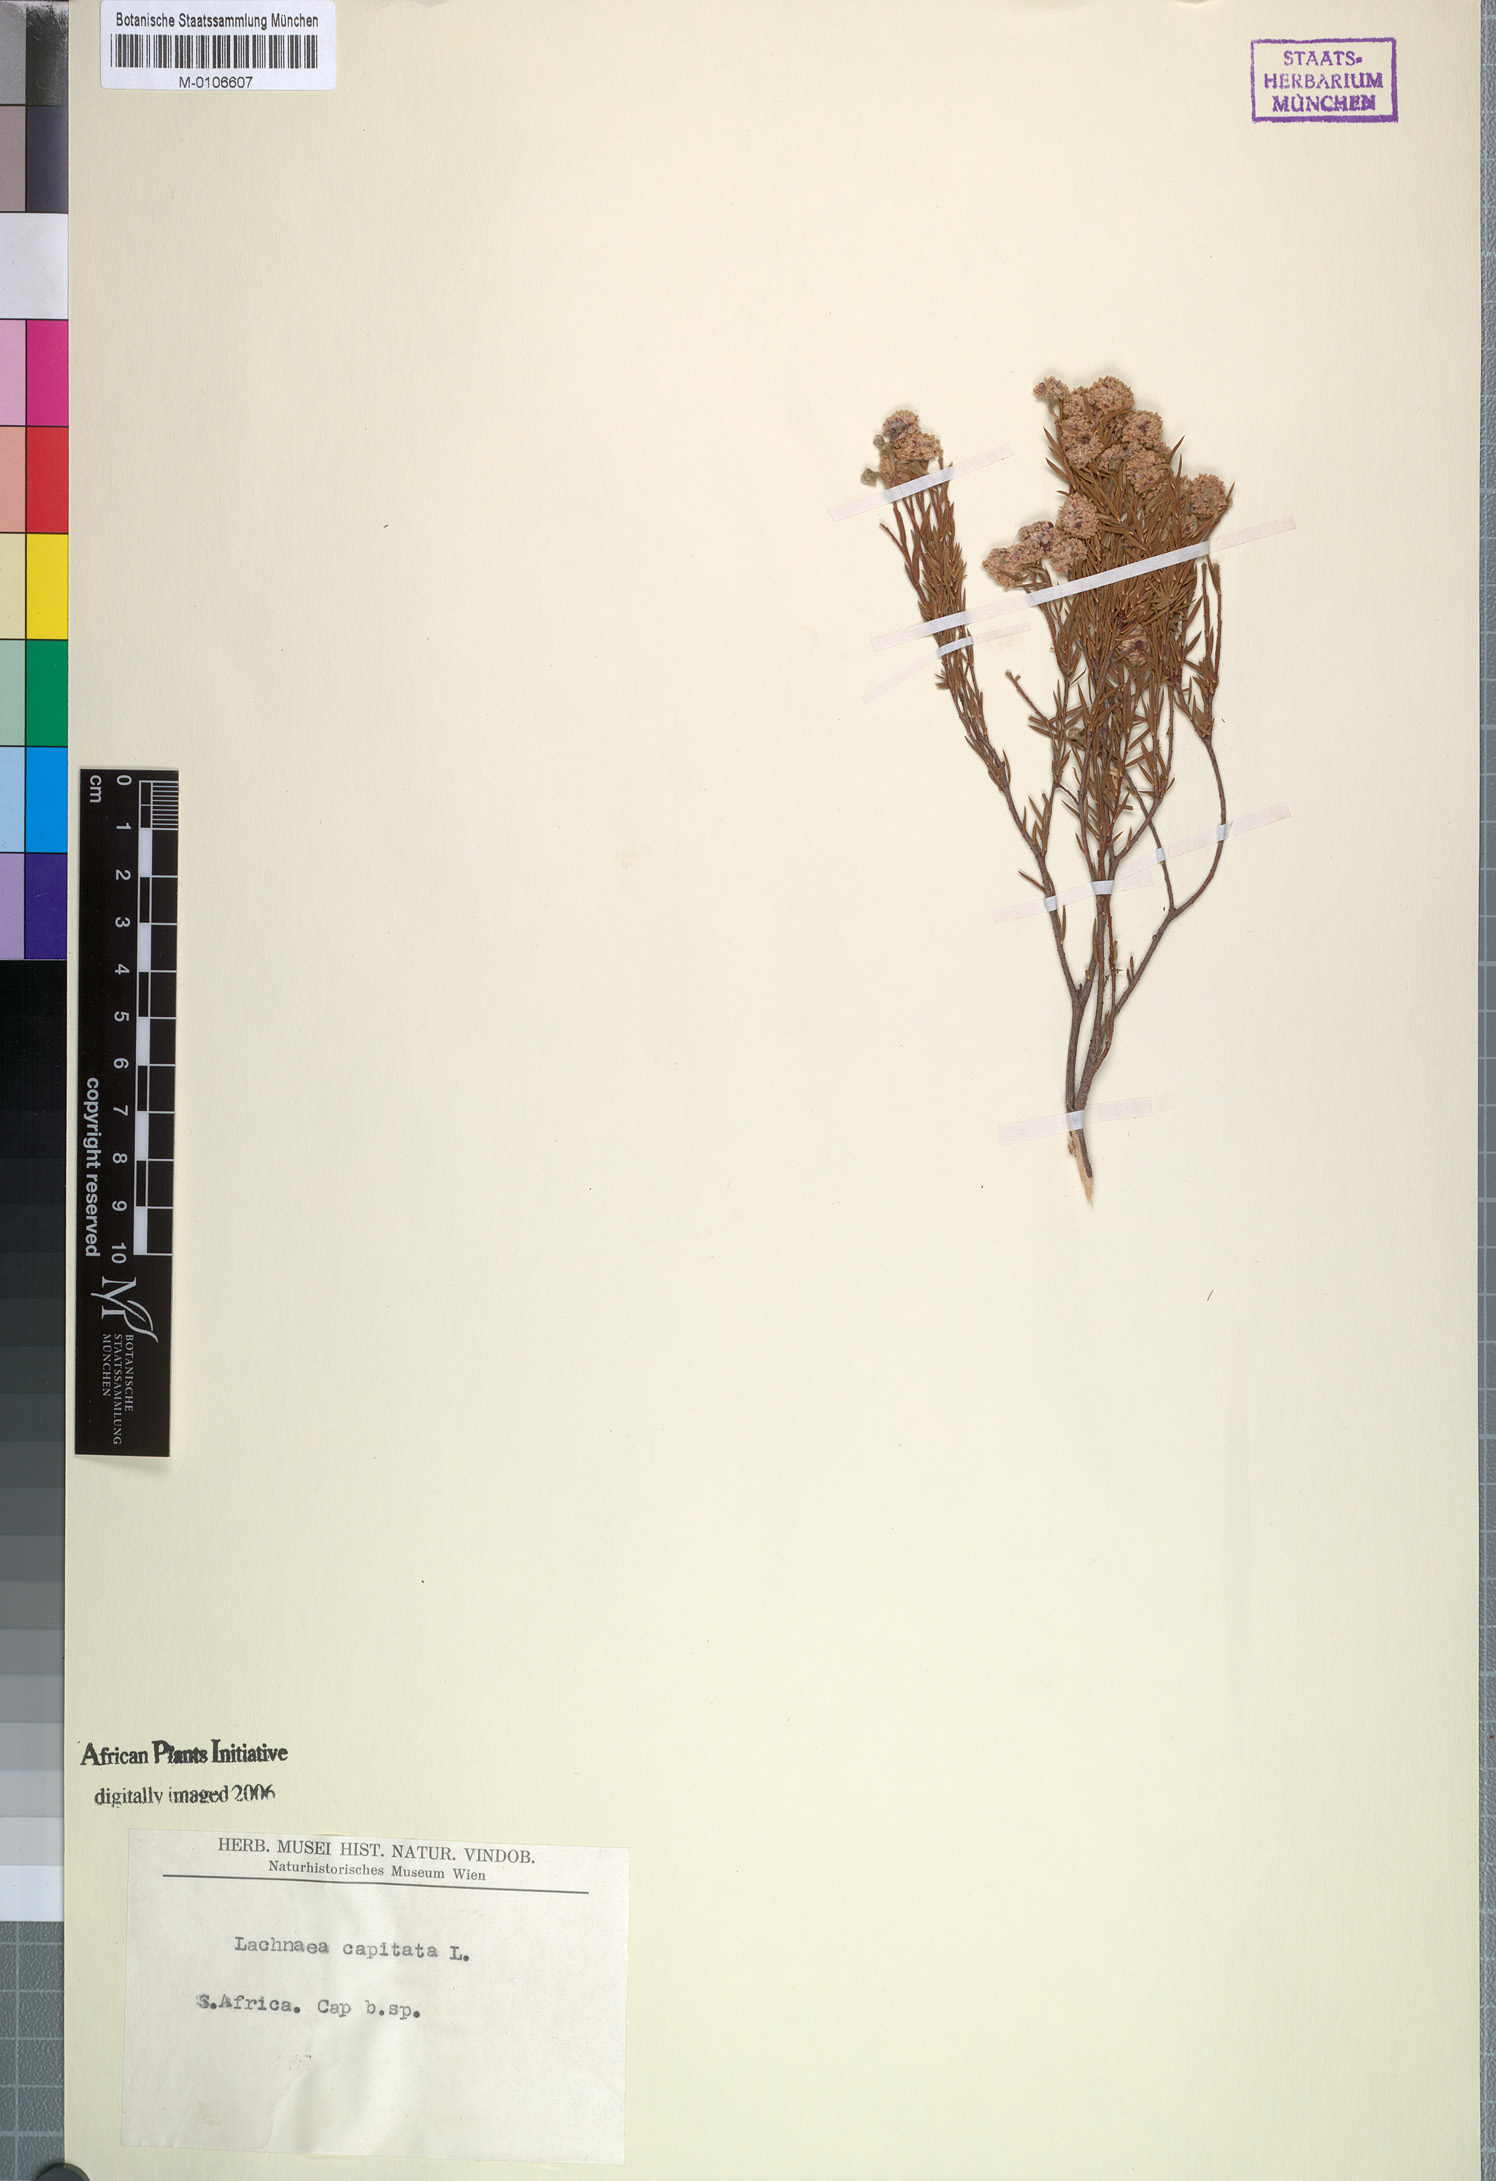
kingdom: Plantae
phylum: Tracheophyta
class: Magnoliopsida
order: Malvales
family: Thymelaeaceae
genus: Lachnaea
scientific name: Lachnaea capitata
